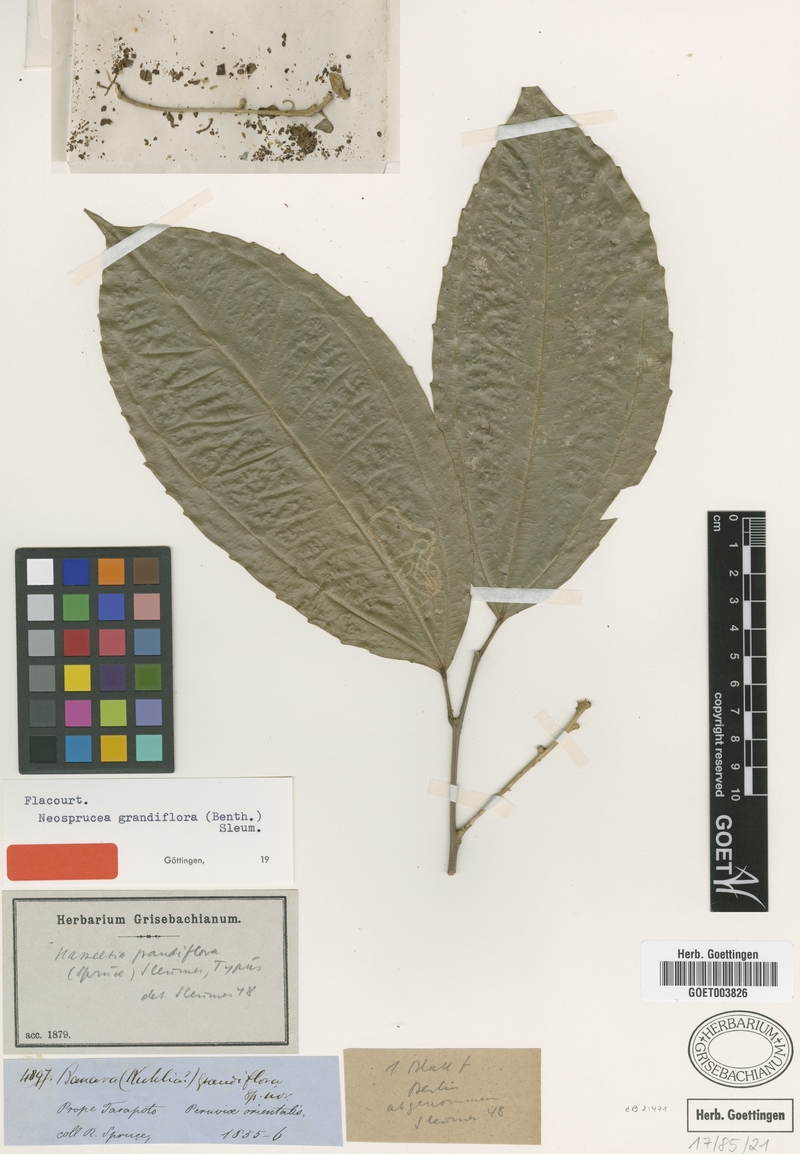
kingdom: Plantae
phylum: Tracheophyta
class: Magnoliopsida
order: Malpighiales
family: Salicaceae
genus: Neosprucea
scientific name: Neosprucea grandiflora
